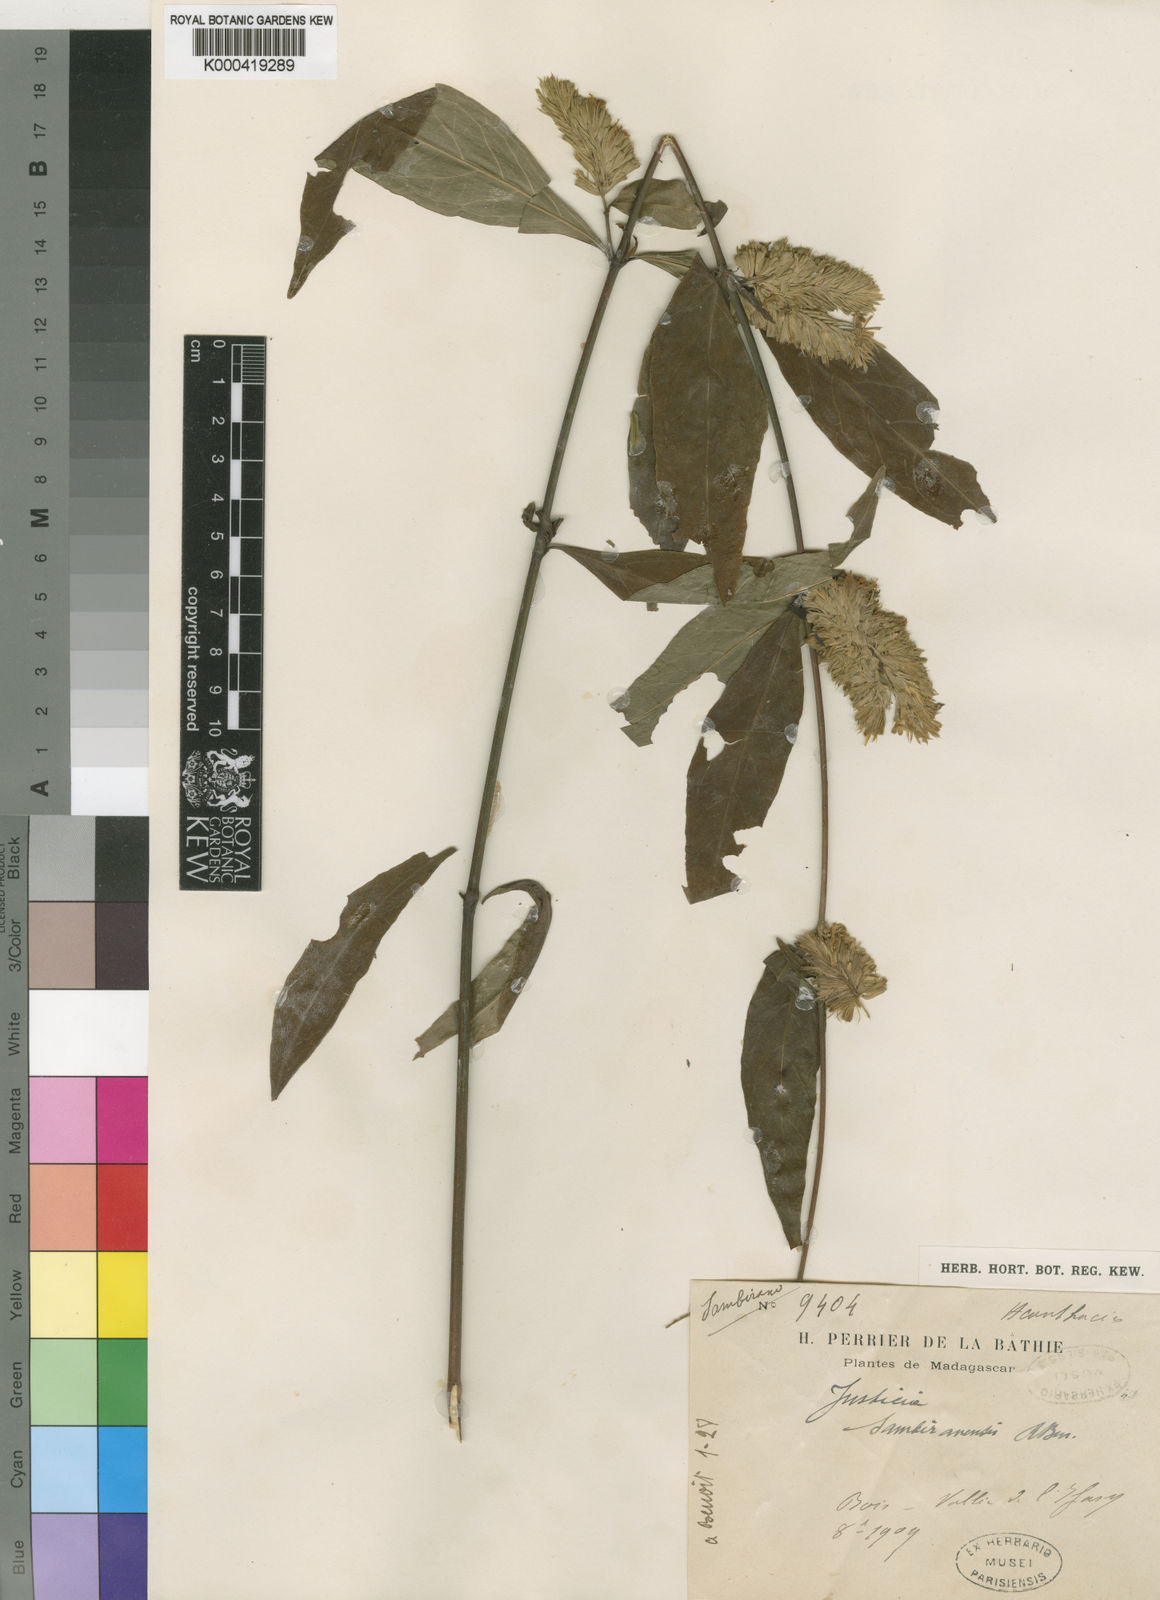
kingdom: Plantae
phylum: Tracheophyta
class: Magnoliopsida
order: Lamiales
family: Acanthaceae
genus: Justicia
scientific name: Justicia sambiranensis
